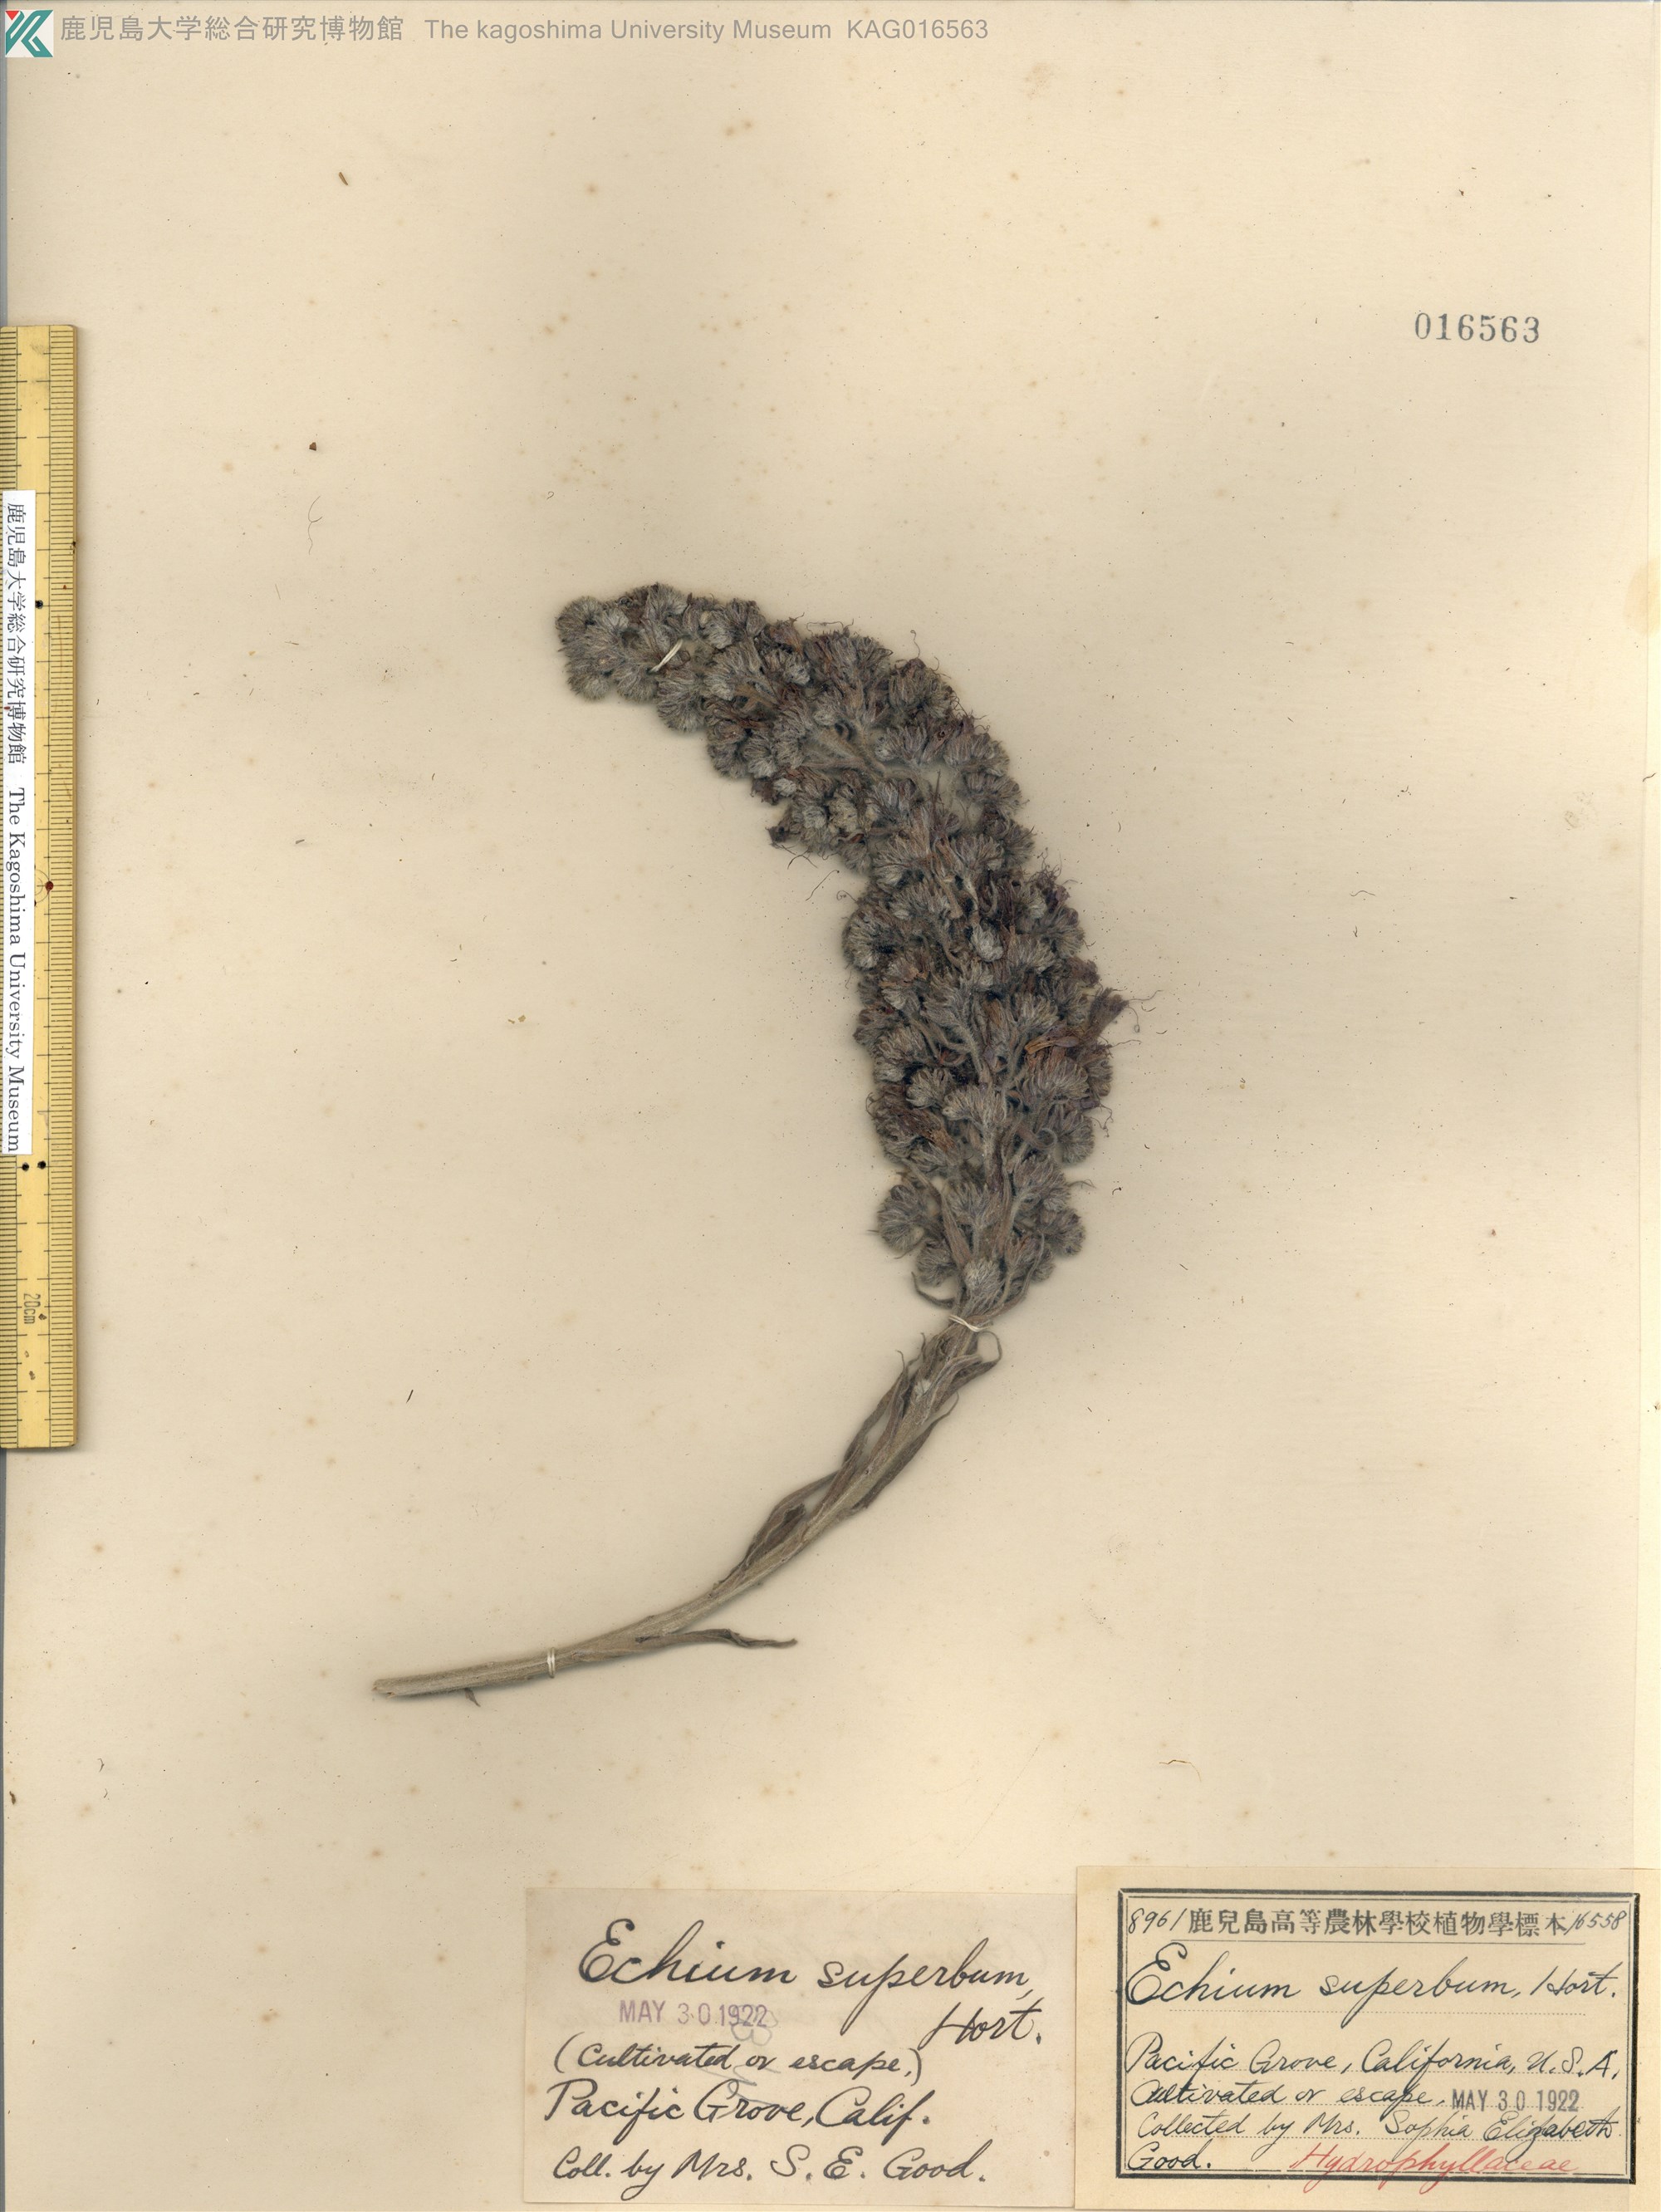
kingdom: Plantae
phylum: Tracheophyta
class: Magnoliopsida
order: Boraginales
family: Boraginaceae
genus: Echium
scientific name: Echium
